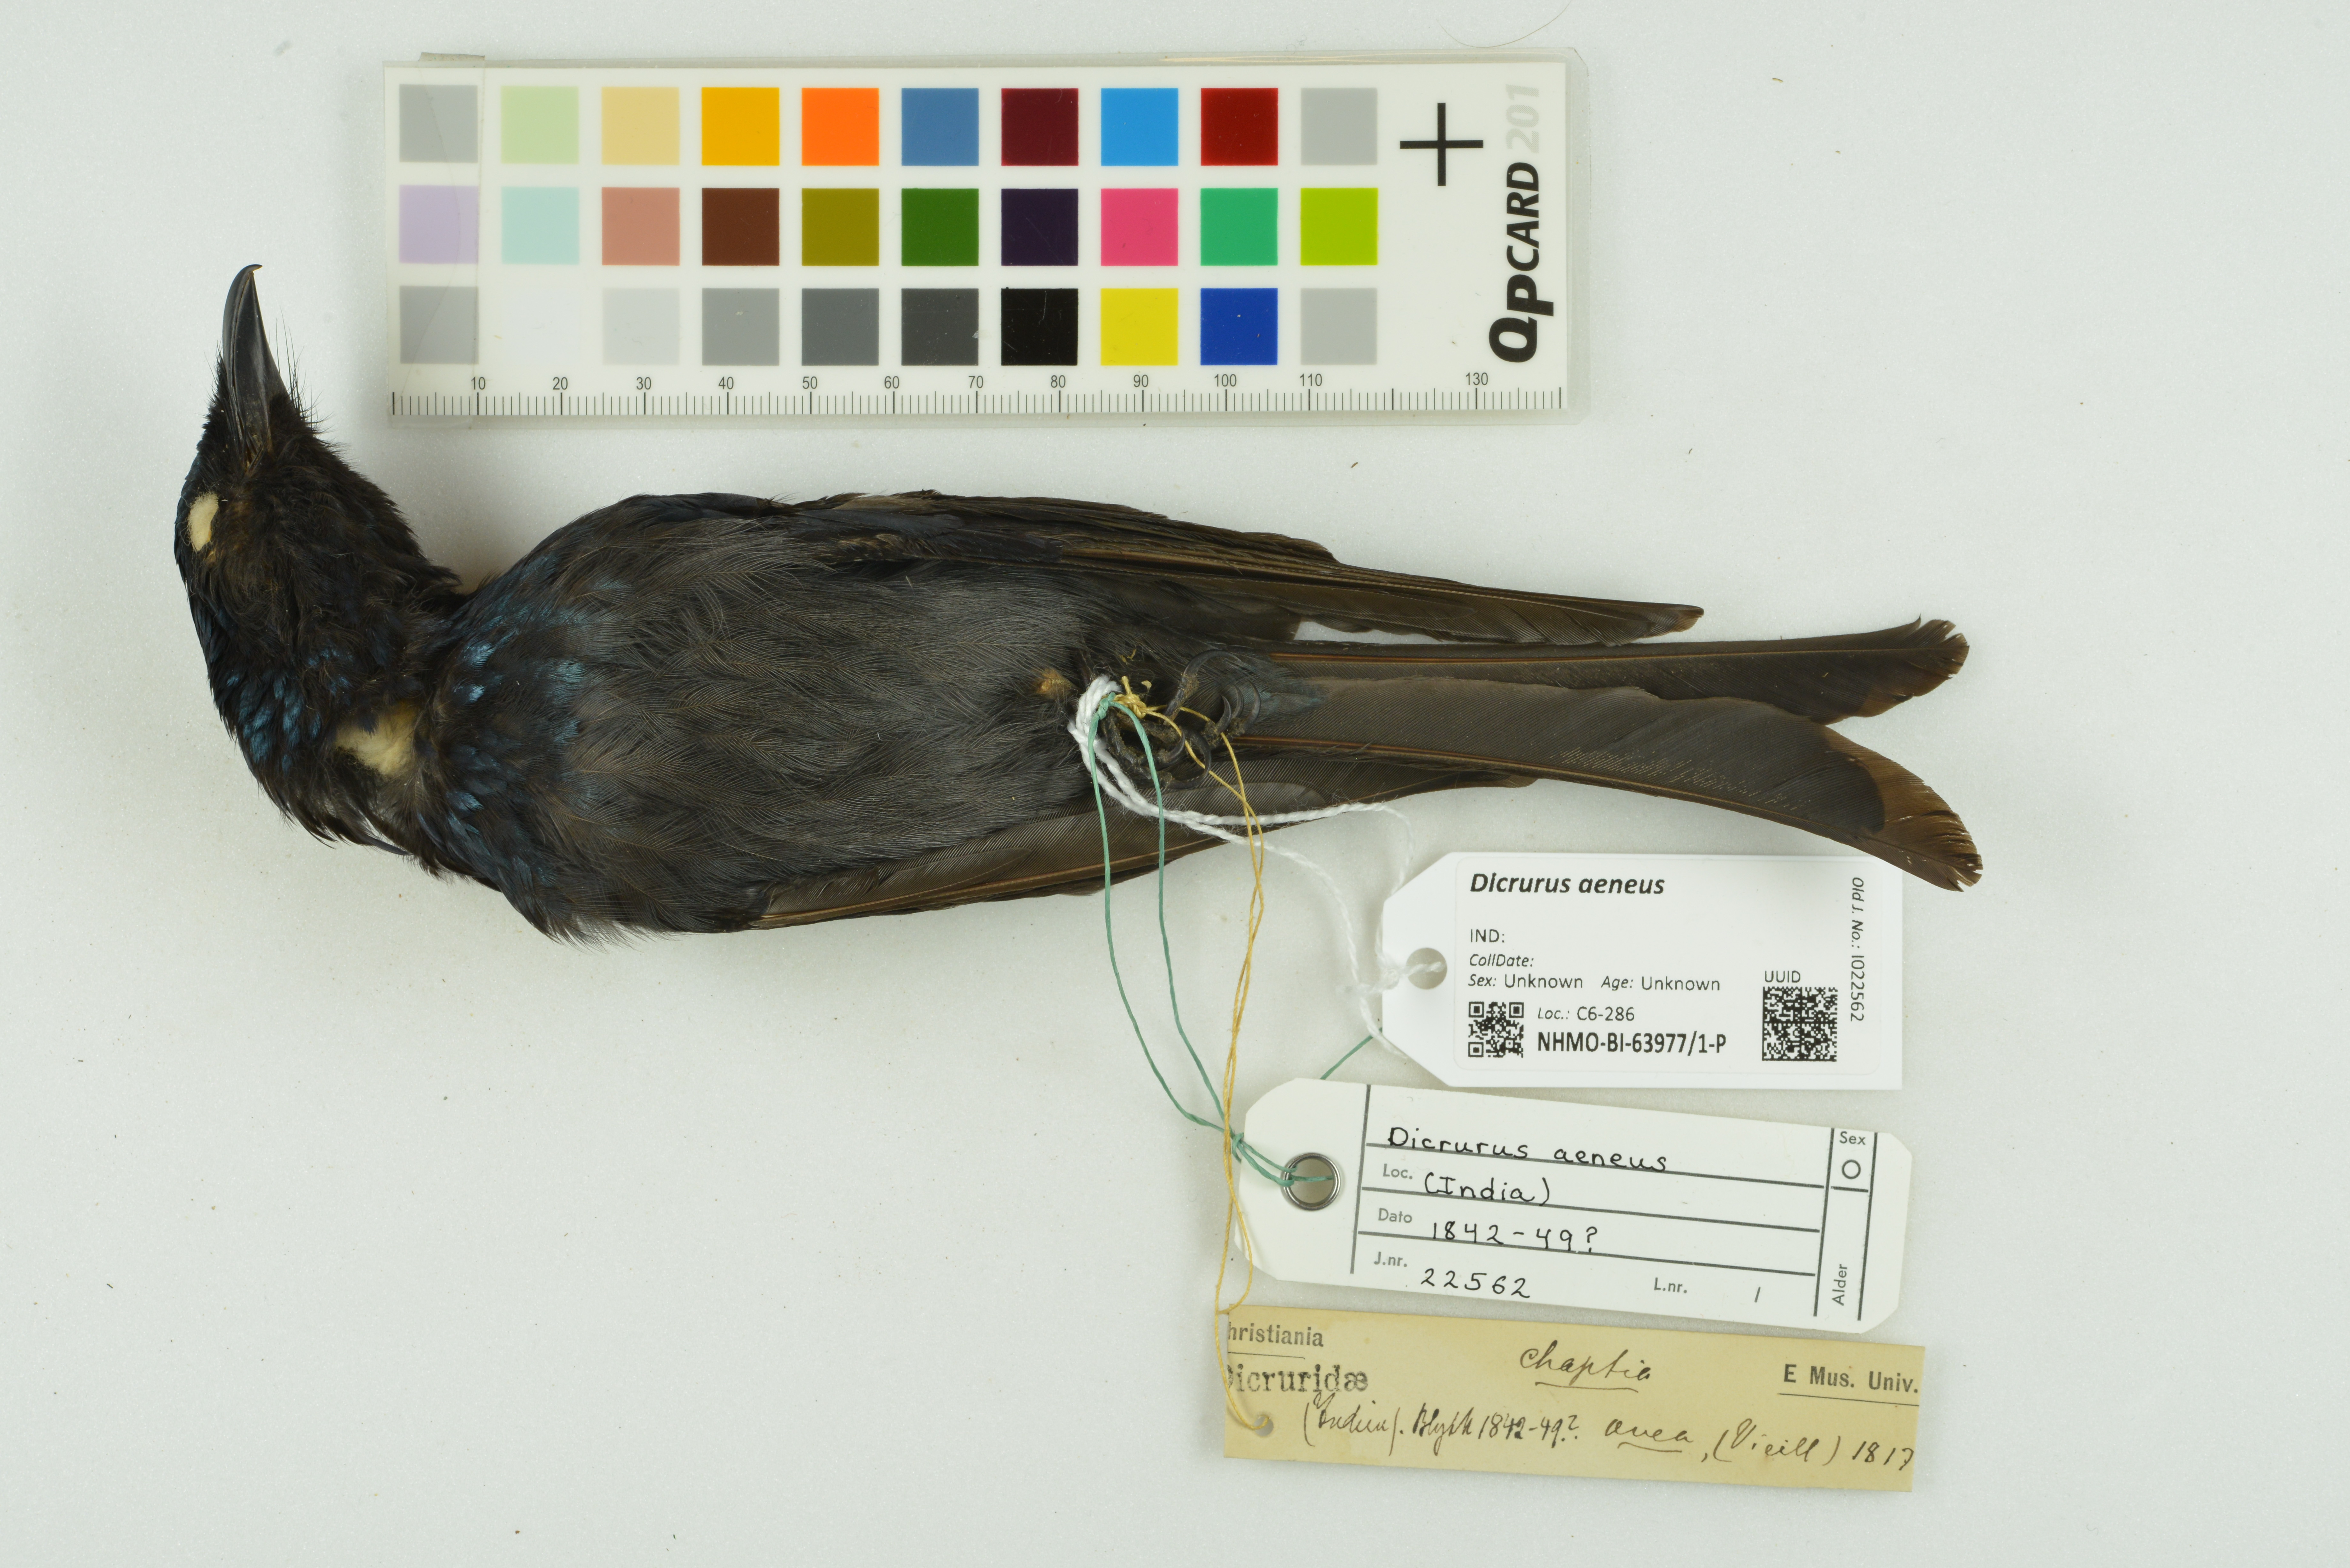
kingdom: Animalia
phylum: Chordata
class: Aves
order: Passeriformes
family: Dicruridae
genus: Dicrurus
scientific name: Dicrurus aeneus
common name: Bronzed drongo
